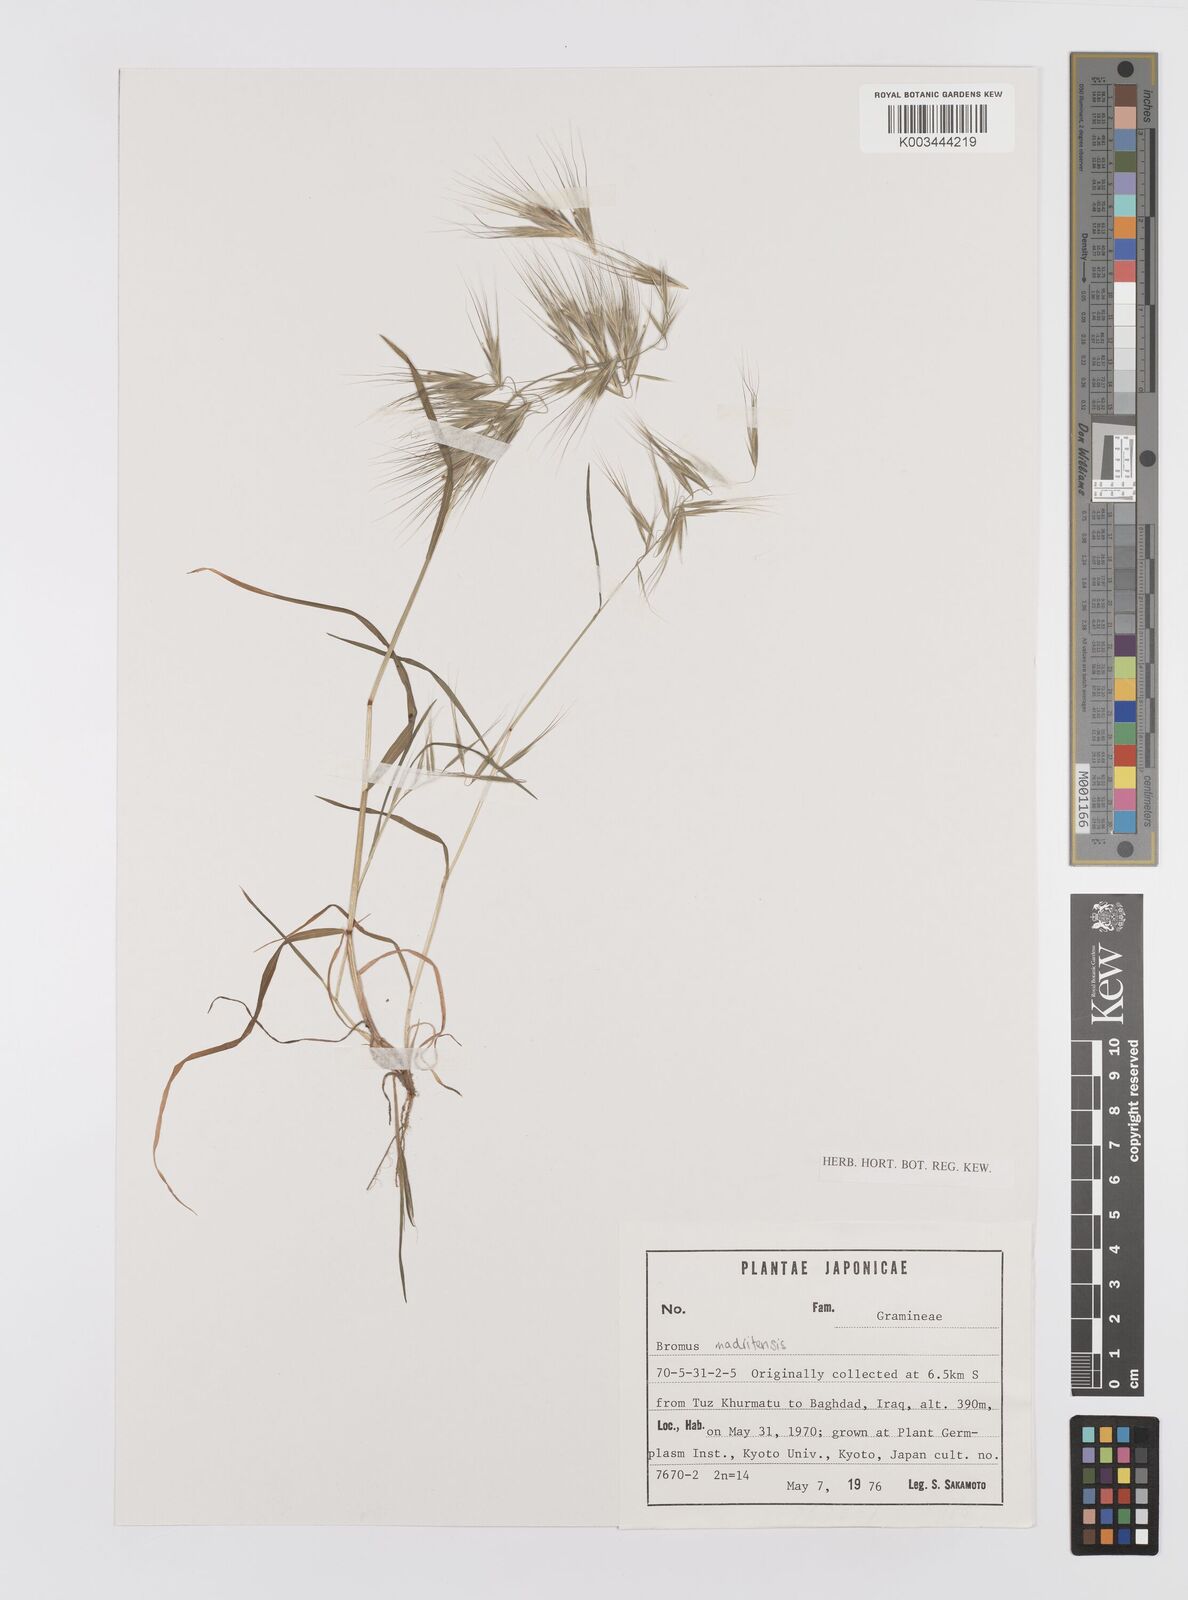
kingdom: Plantae
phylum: Tracheophyta
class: Liliopsida
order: Poales
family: Poaceae
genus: Bromus
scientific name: Bromus madritensis
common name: Compact brome
